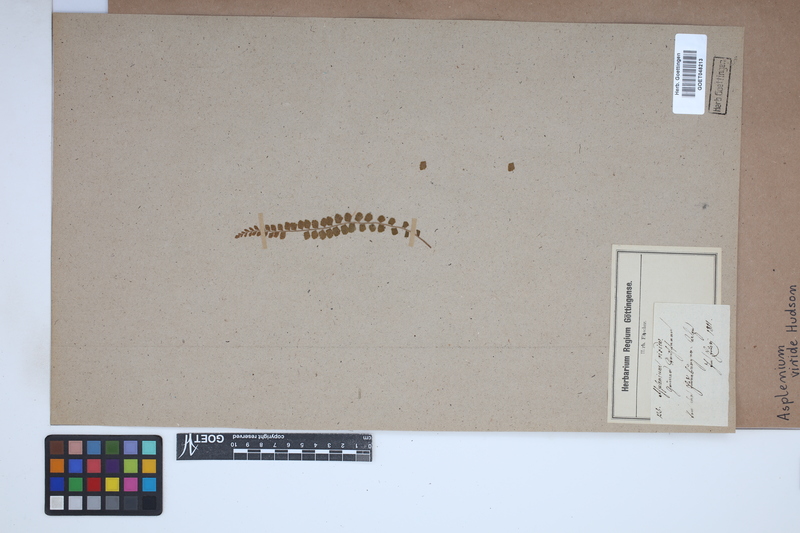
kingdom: Plantae
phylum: Tracheophyta
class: Polypodiopsida
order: Polypodiales
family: Aspleniaceae
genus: Asplenium
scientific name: Asplenium viride
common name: Green spleenwort
